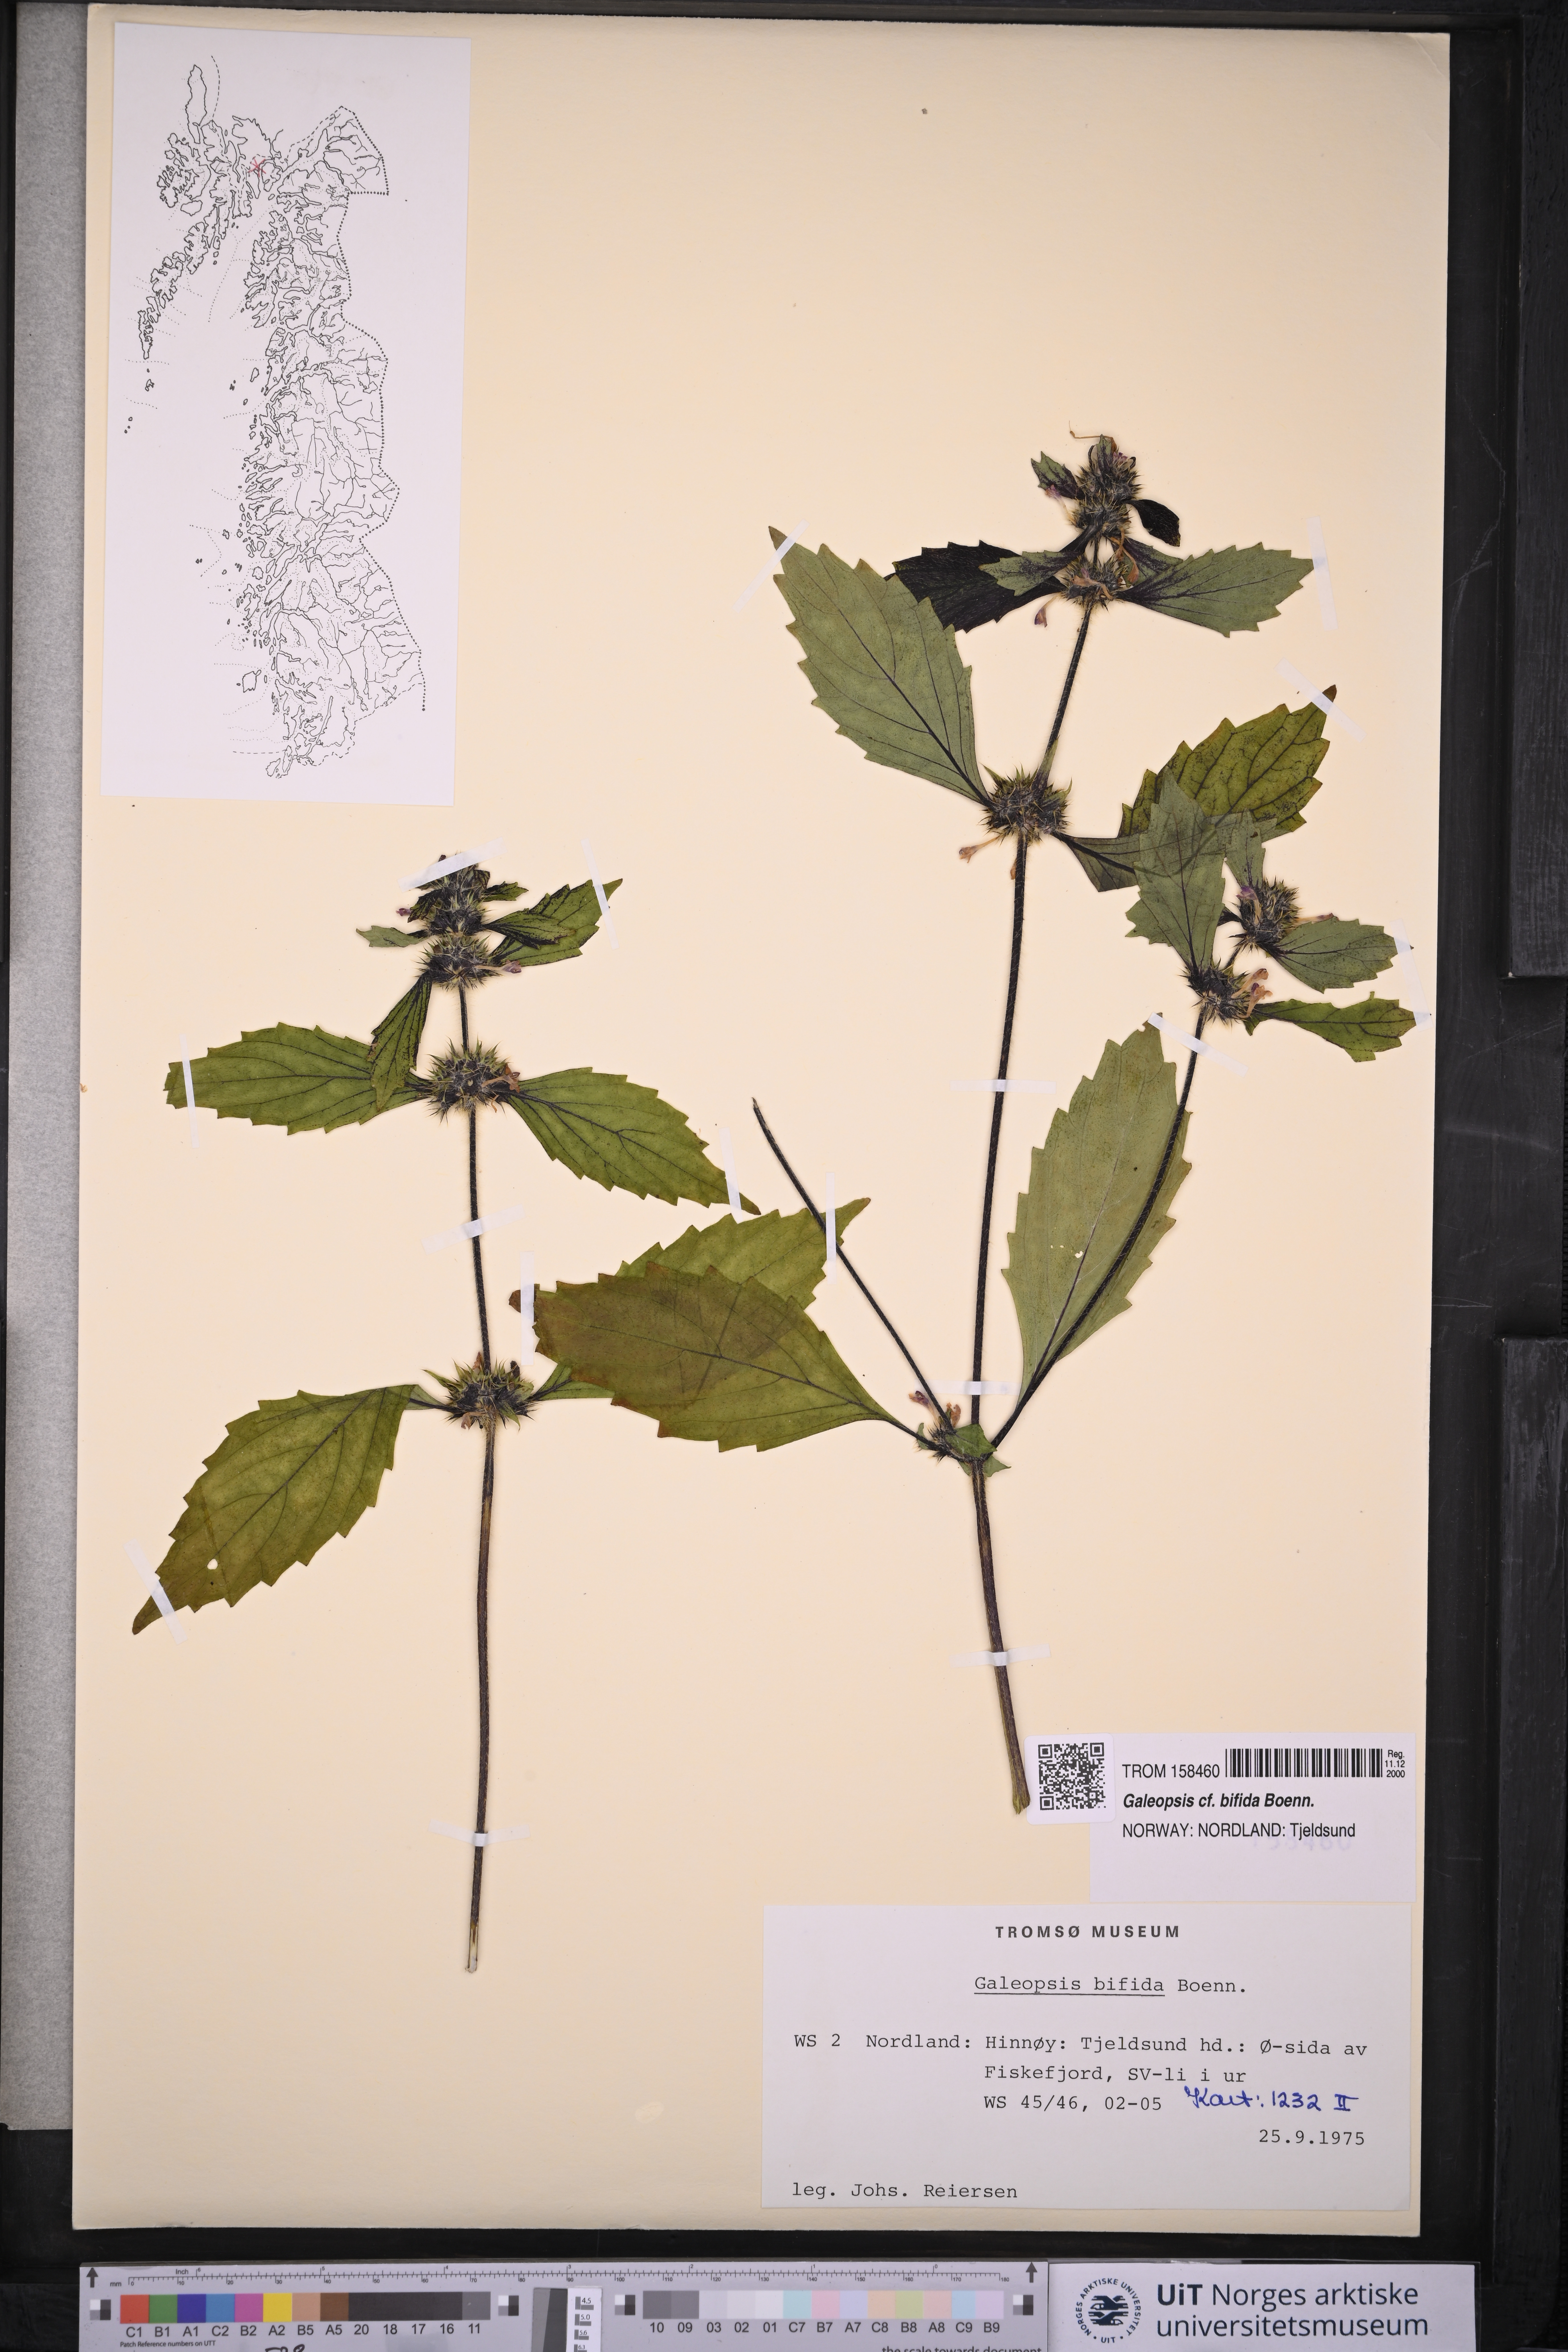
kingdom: Plantae
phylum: Tracheophyta
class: Magnoliopsida
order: Lamiales
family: Lamiaceae
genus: Galeopsis
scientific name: Galeopsis bifida
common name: Bifid hemp-nettle
